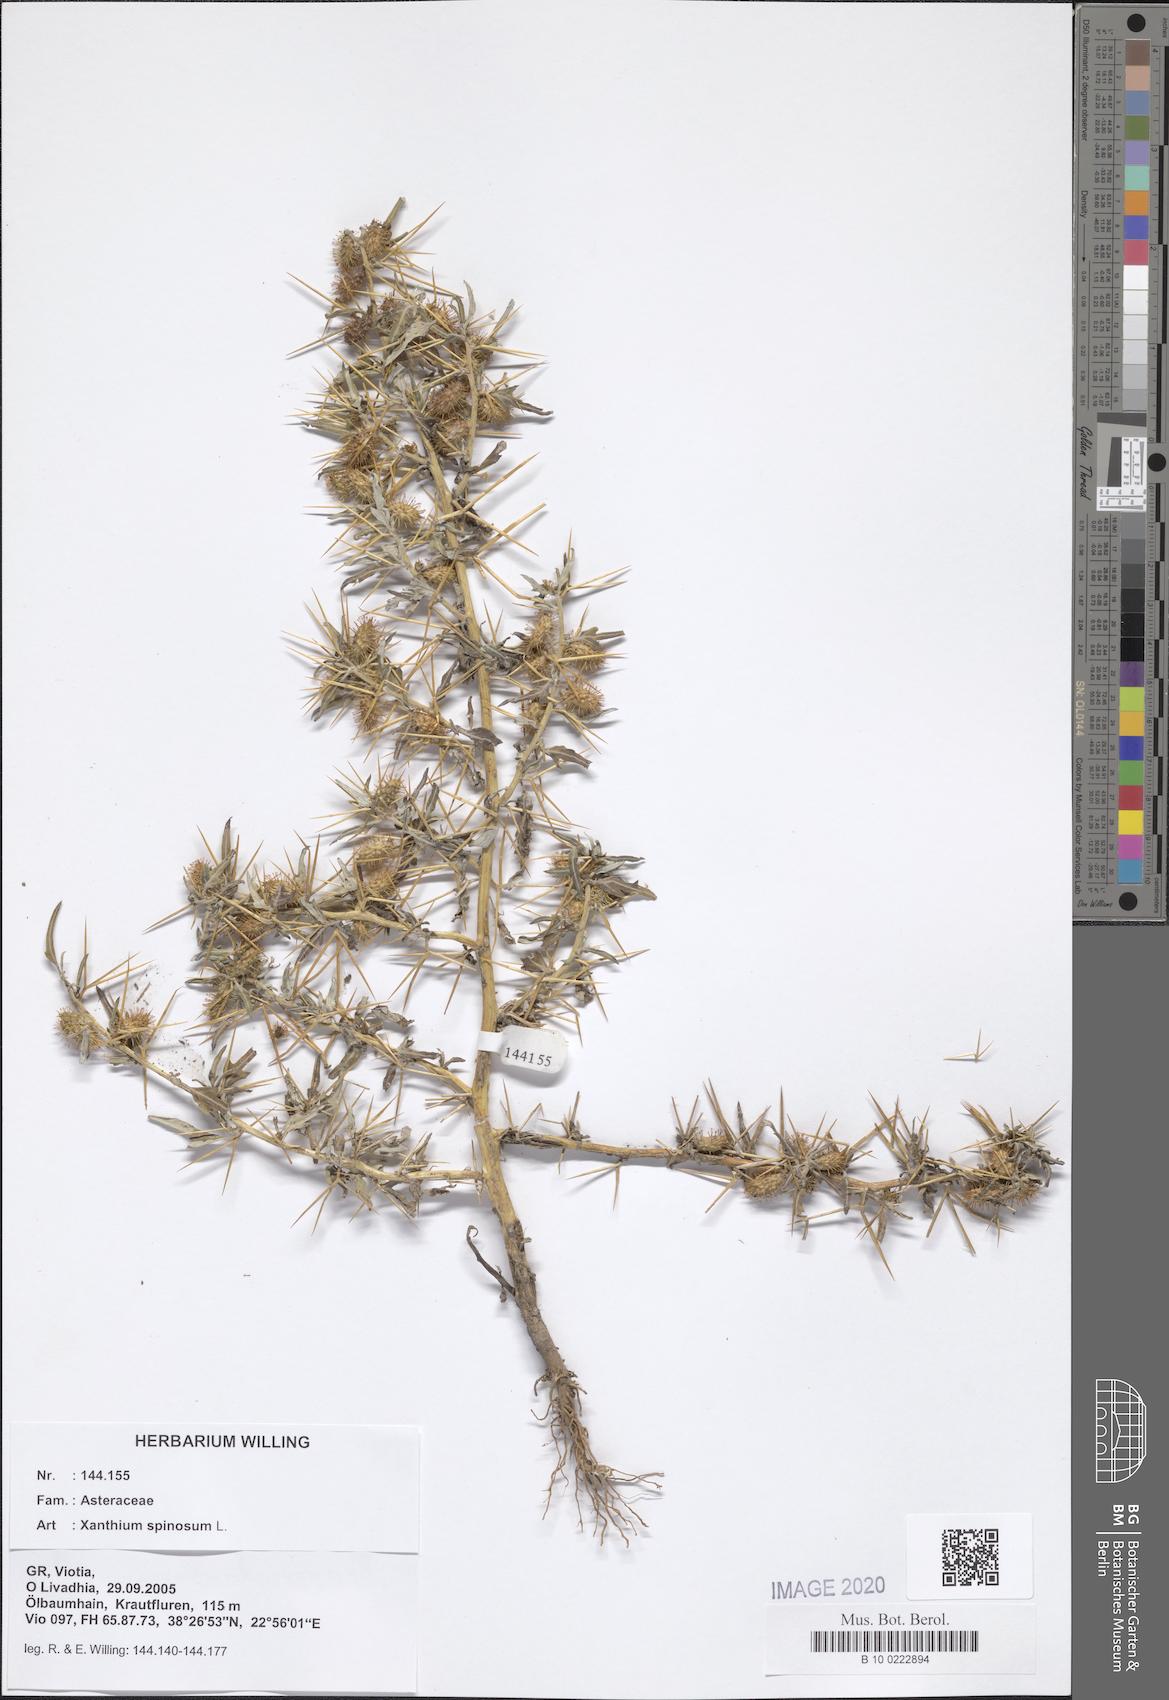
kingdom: Plantae
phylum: Tracheophyta
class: Magnoliopsida
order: Asterales
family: Asteraceae
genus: Xanthium
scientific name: Xanthium spinosum
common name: Spiny cocklebur
